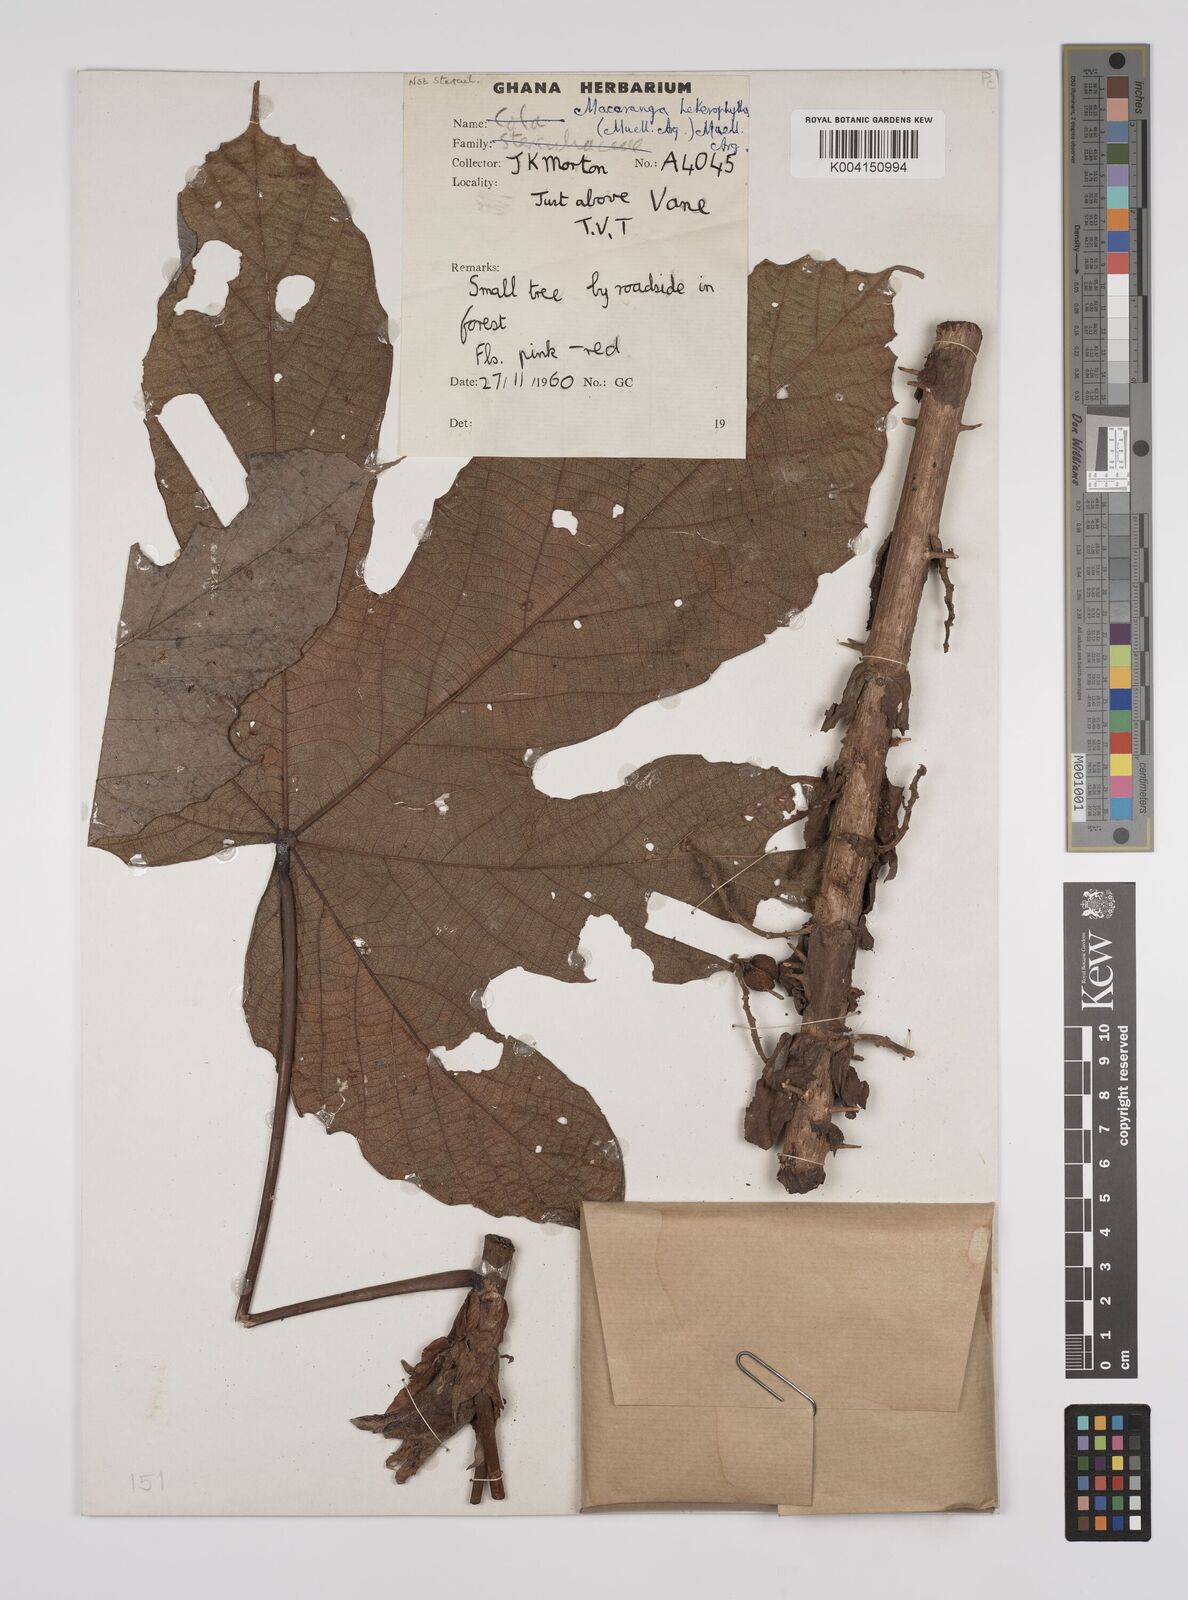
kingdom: Plantae
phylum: Tracheophyta
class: Magnoliopsida
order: Malpighiales
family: Euphorbiaceae
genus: Macaranga
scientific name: Macaranga heterophylla
